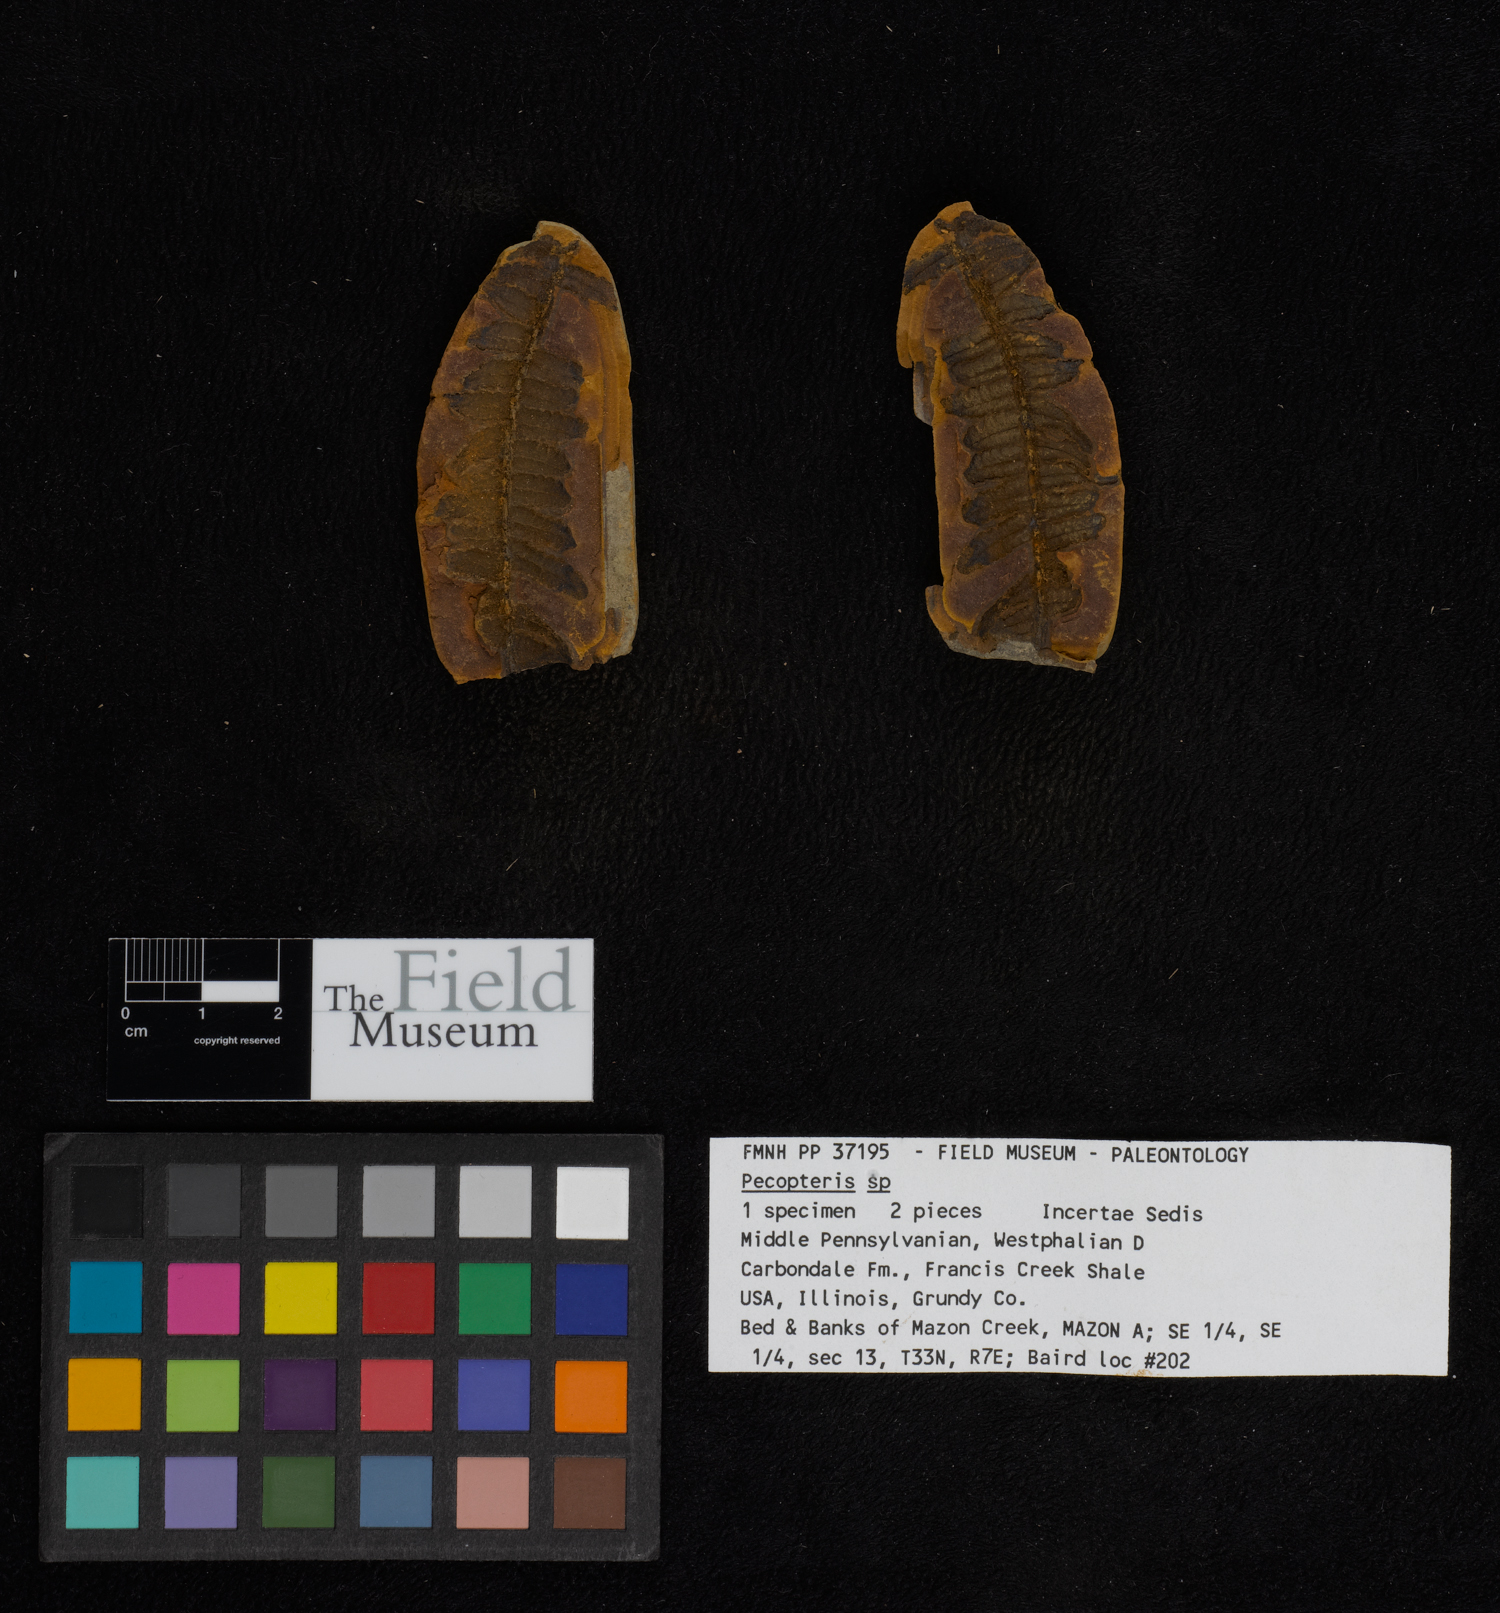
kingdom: Plantae
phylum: Tracheophyta
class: Polypodiopsida
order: Marattiales
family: Asterothecaceae
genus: Pecopteris
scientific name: Pecopteris
